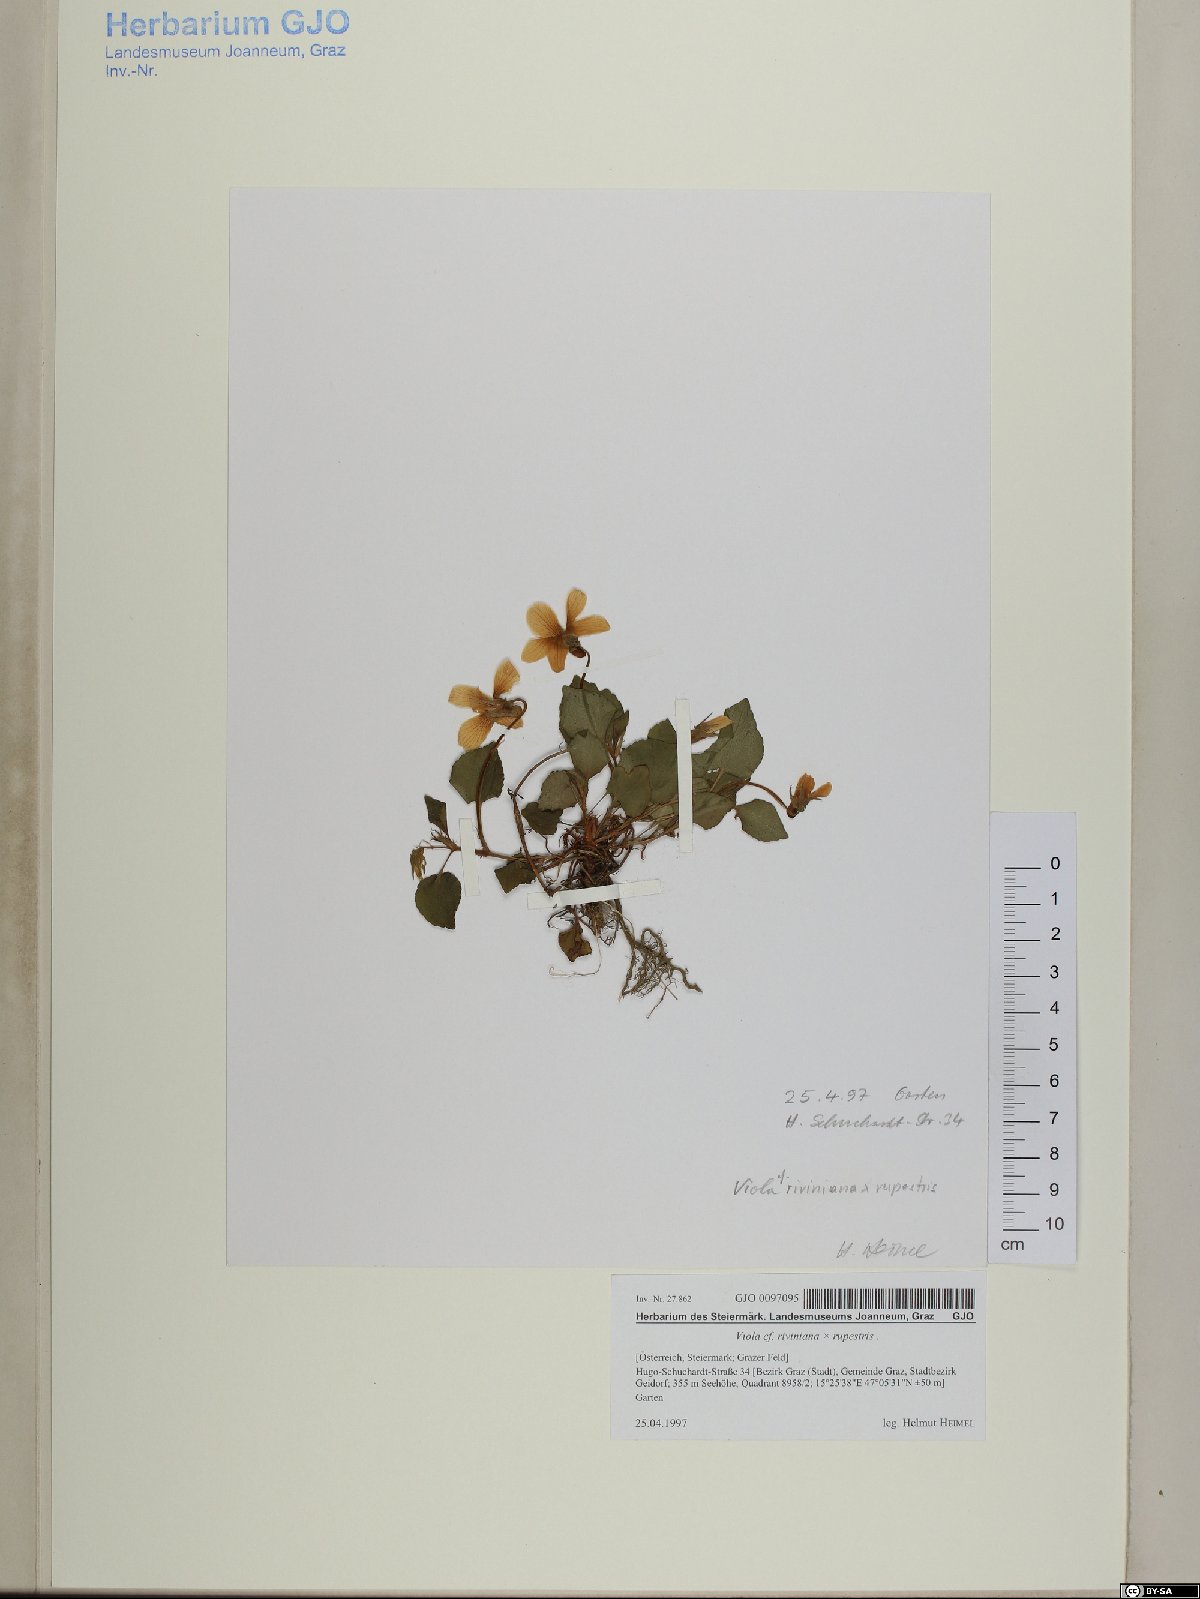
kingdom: Plantae
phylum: Tracheophyta
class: Magnoliopsida
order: Malpighiales
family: Violaceae
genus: Viola
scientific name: Viola riviniana
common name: Common dog-violet
